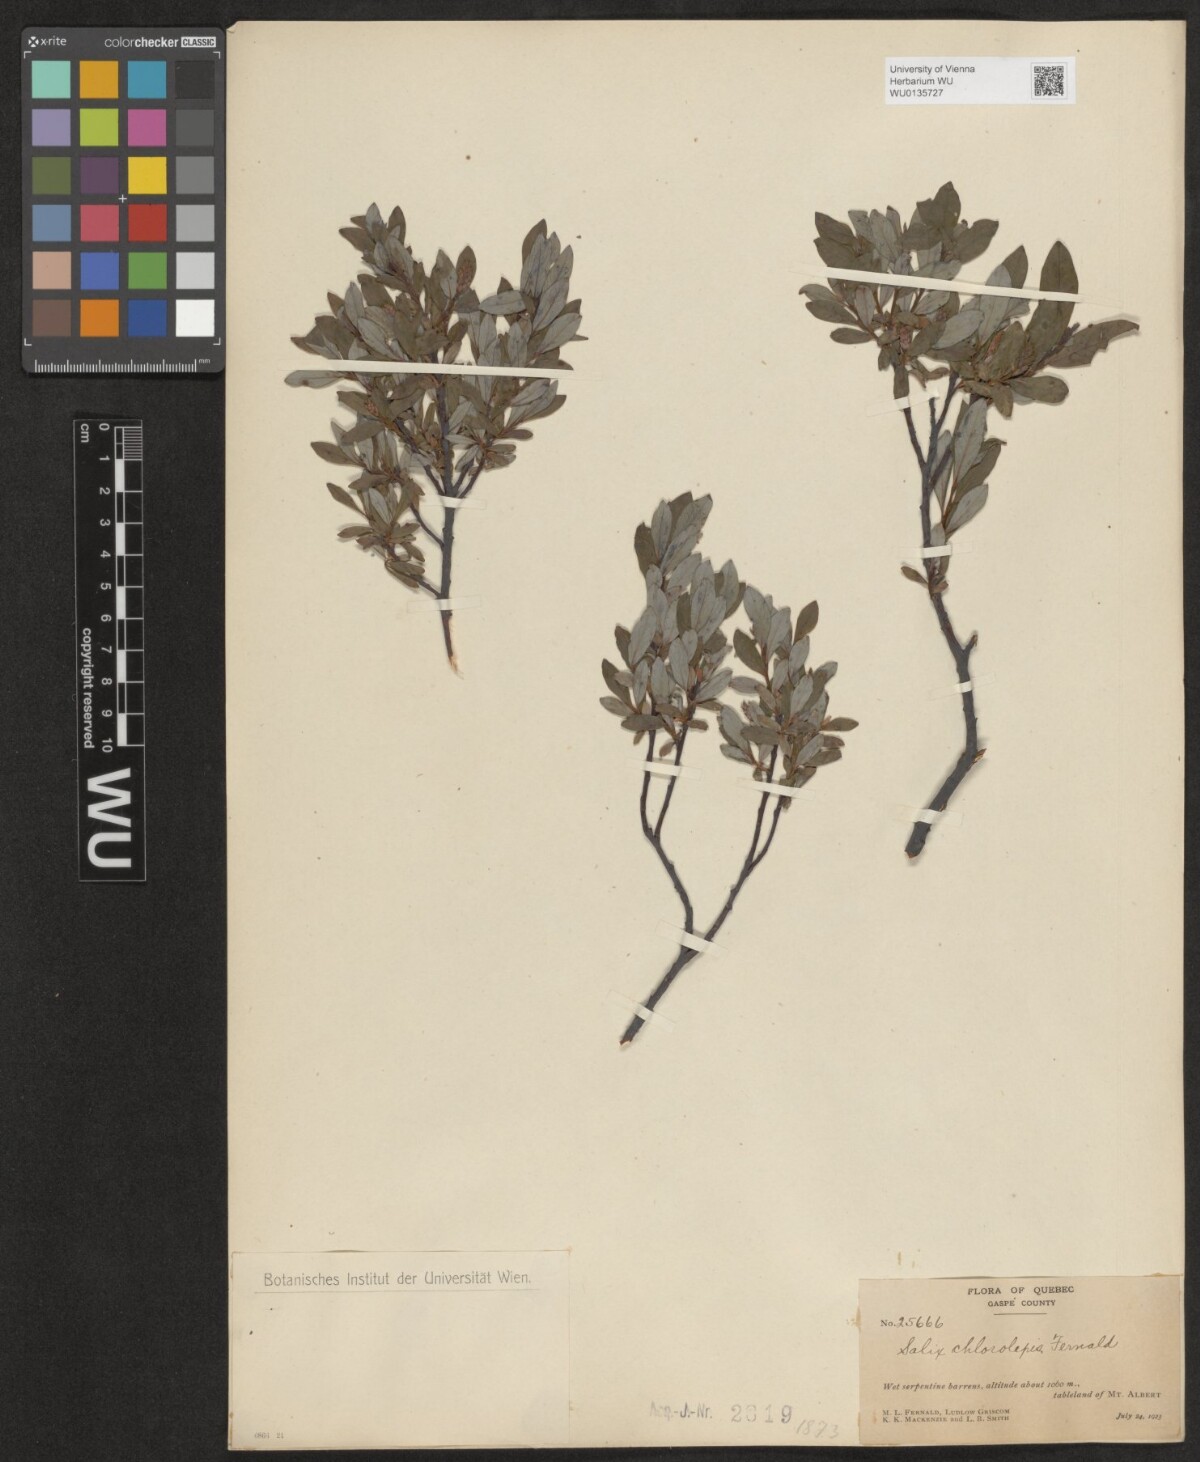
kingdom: Plantae
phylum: Tracheophyta
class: Magnoliopsida
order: Malpighiales
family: Salicaceae
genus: Salix
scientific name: Salix chlorolepis
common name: Green-bract willow
